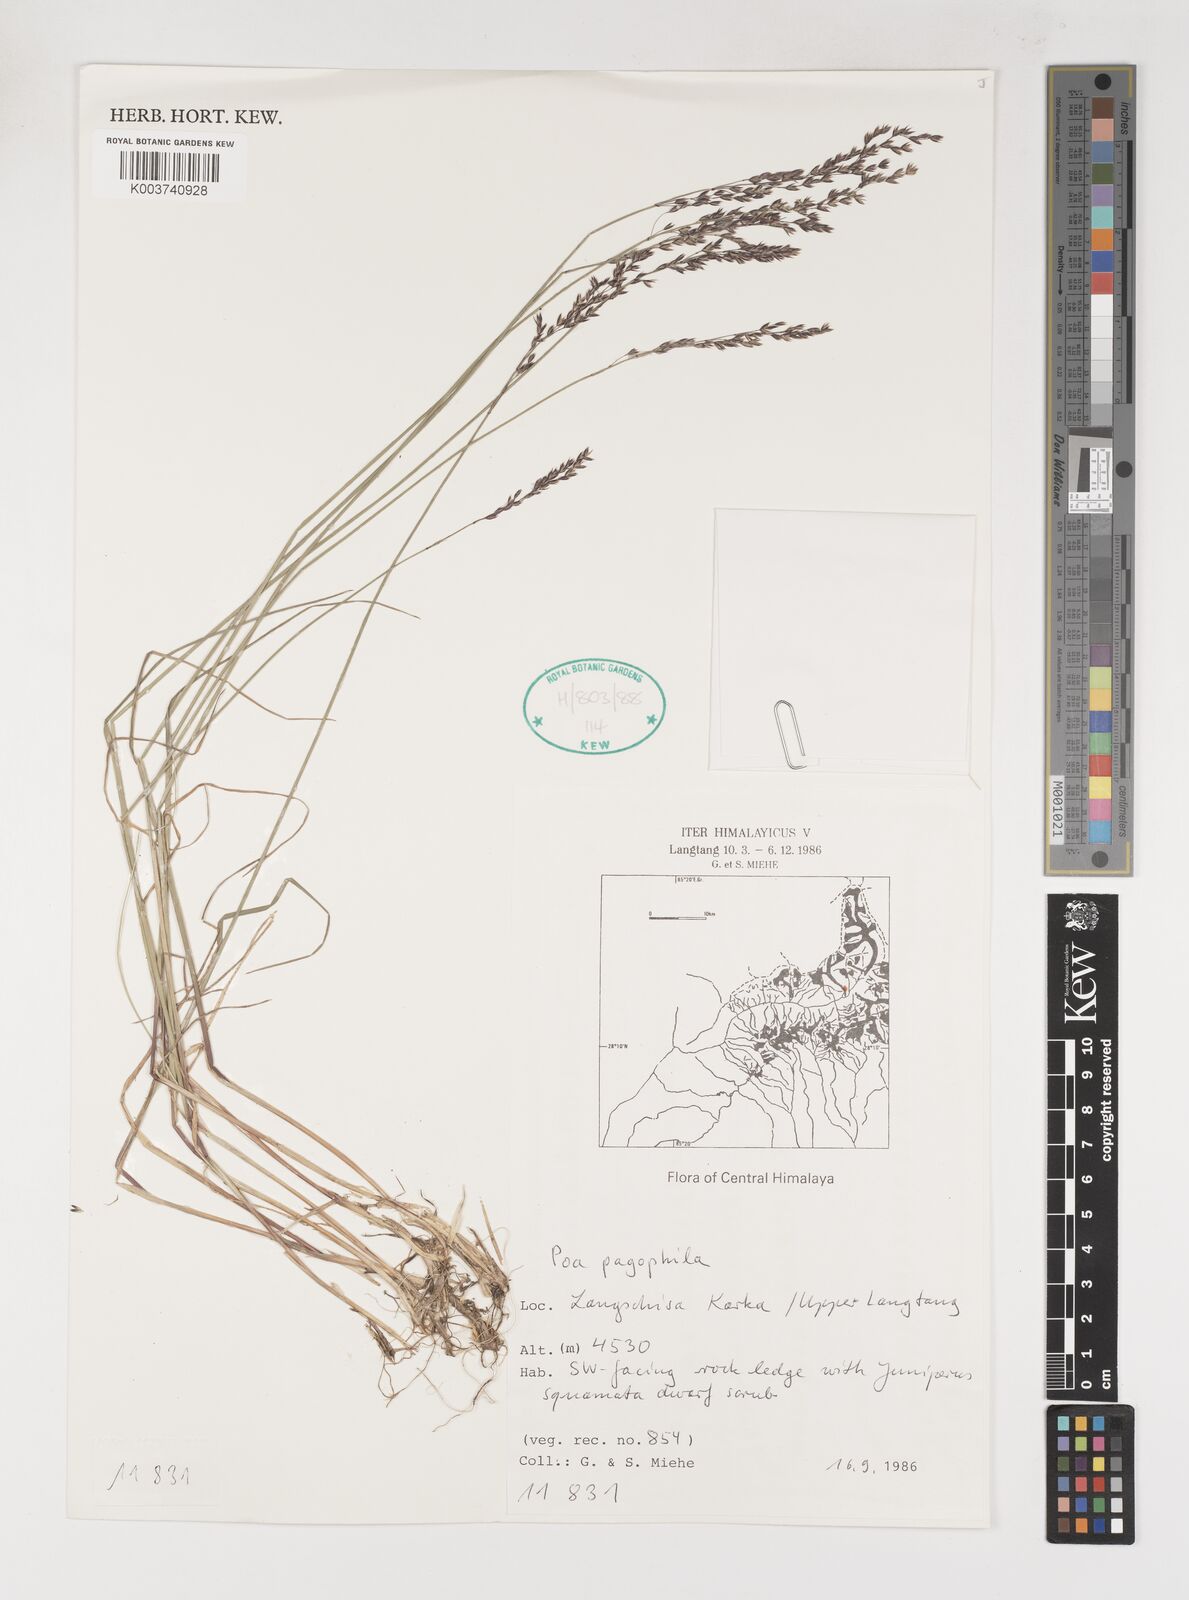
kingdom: Plantae
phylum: Tracheophyta
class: Liliopsida
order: Poales
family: Poaceae
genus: Poa
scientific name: Poa pagophila
